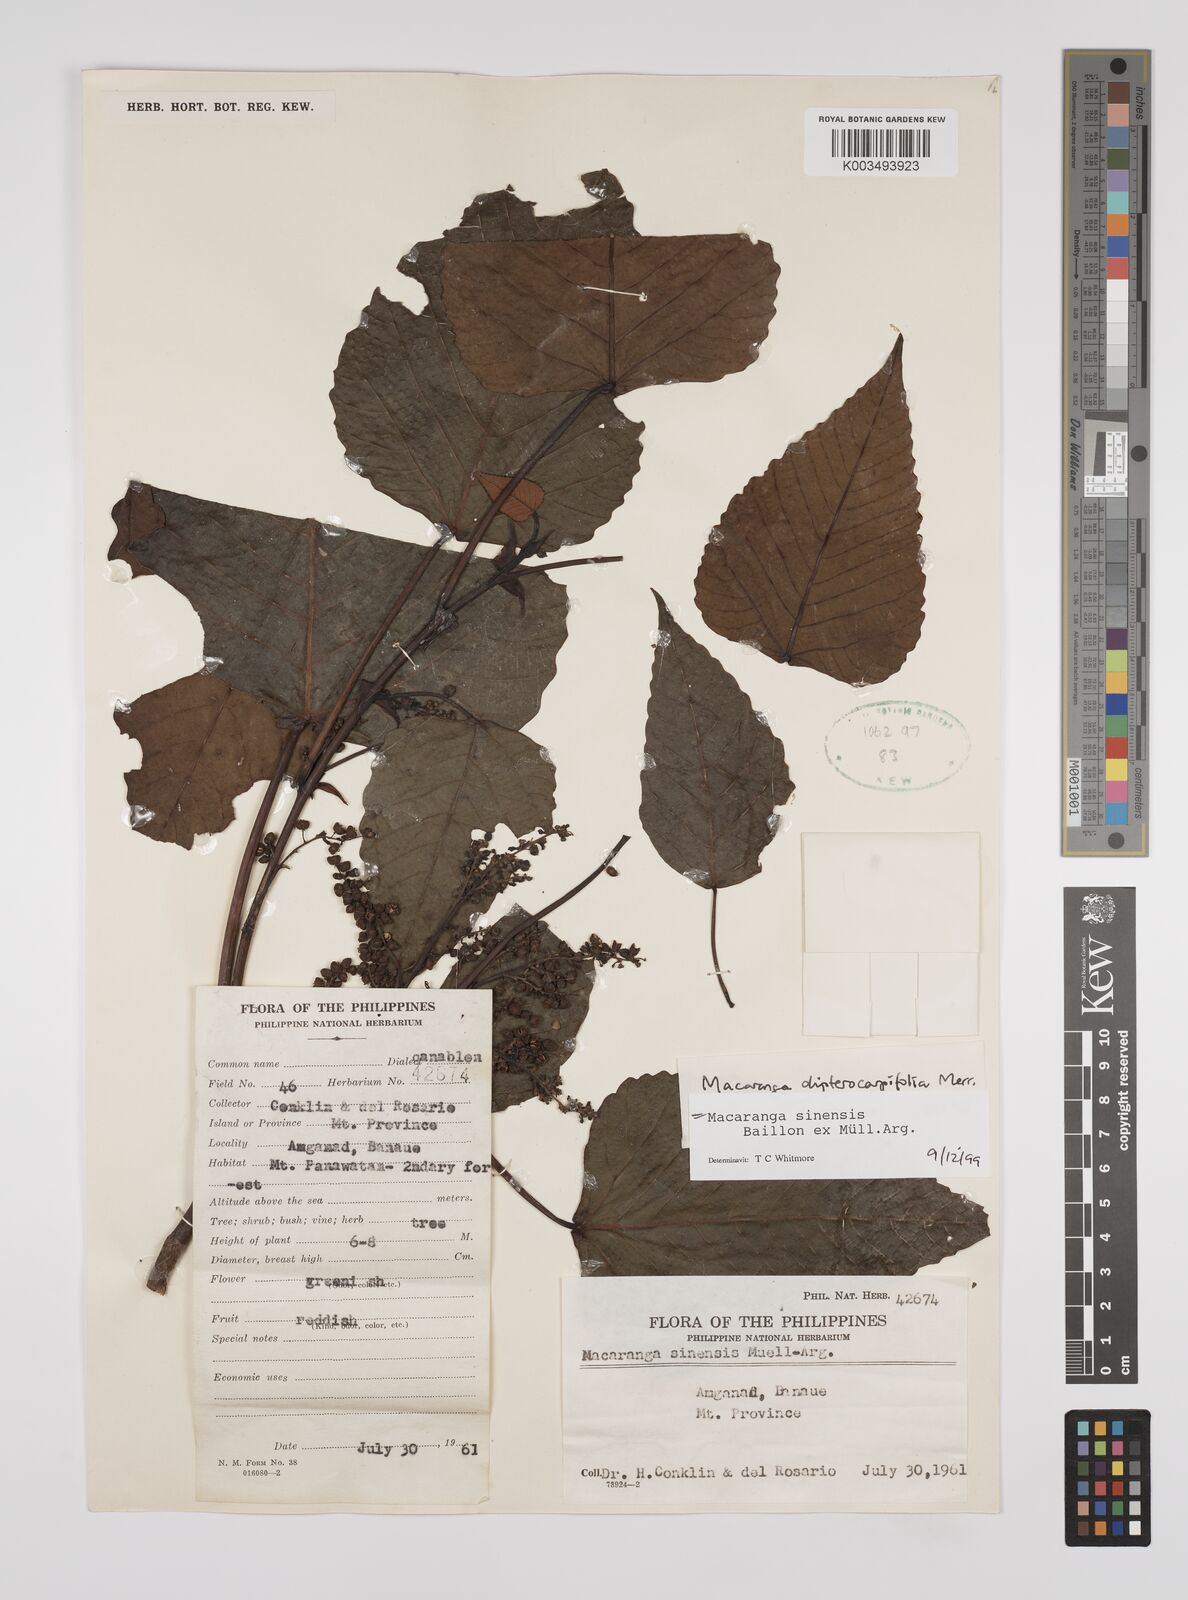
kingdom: Plantae
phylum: Tracheophyta
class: Magnoliopsida
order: Malpighiales
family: Euphorbiaceae
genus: Macaranga
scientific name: Macaranga sinensis
